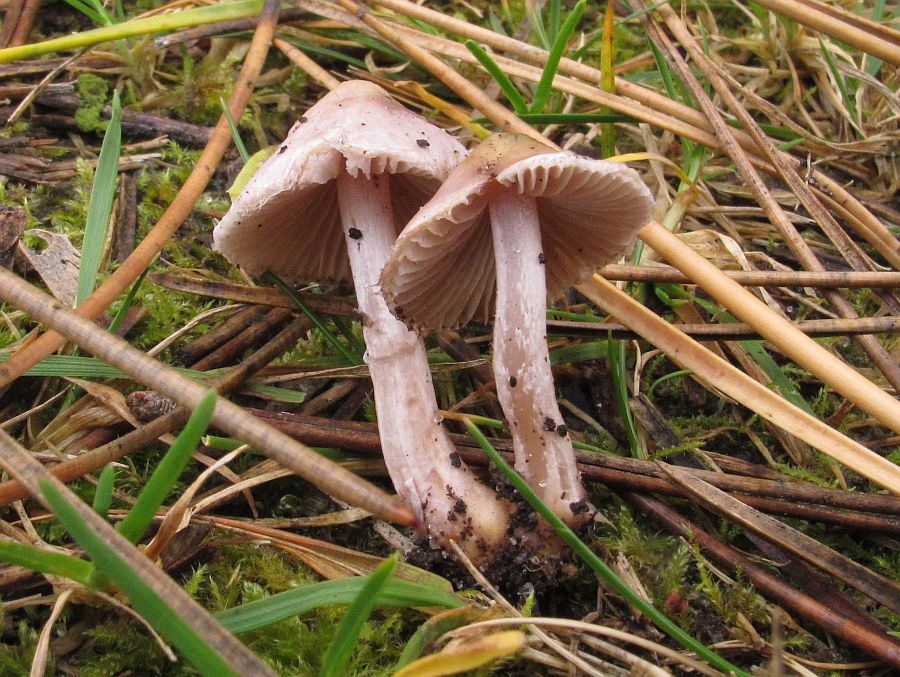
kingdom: Fungi
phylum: Basidiomycota
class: Agaricomycetes
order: Agaricales
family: Inocybaceae
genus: Inocybe
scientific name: Inocybe geophylla
